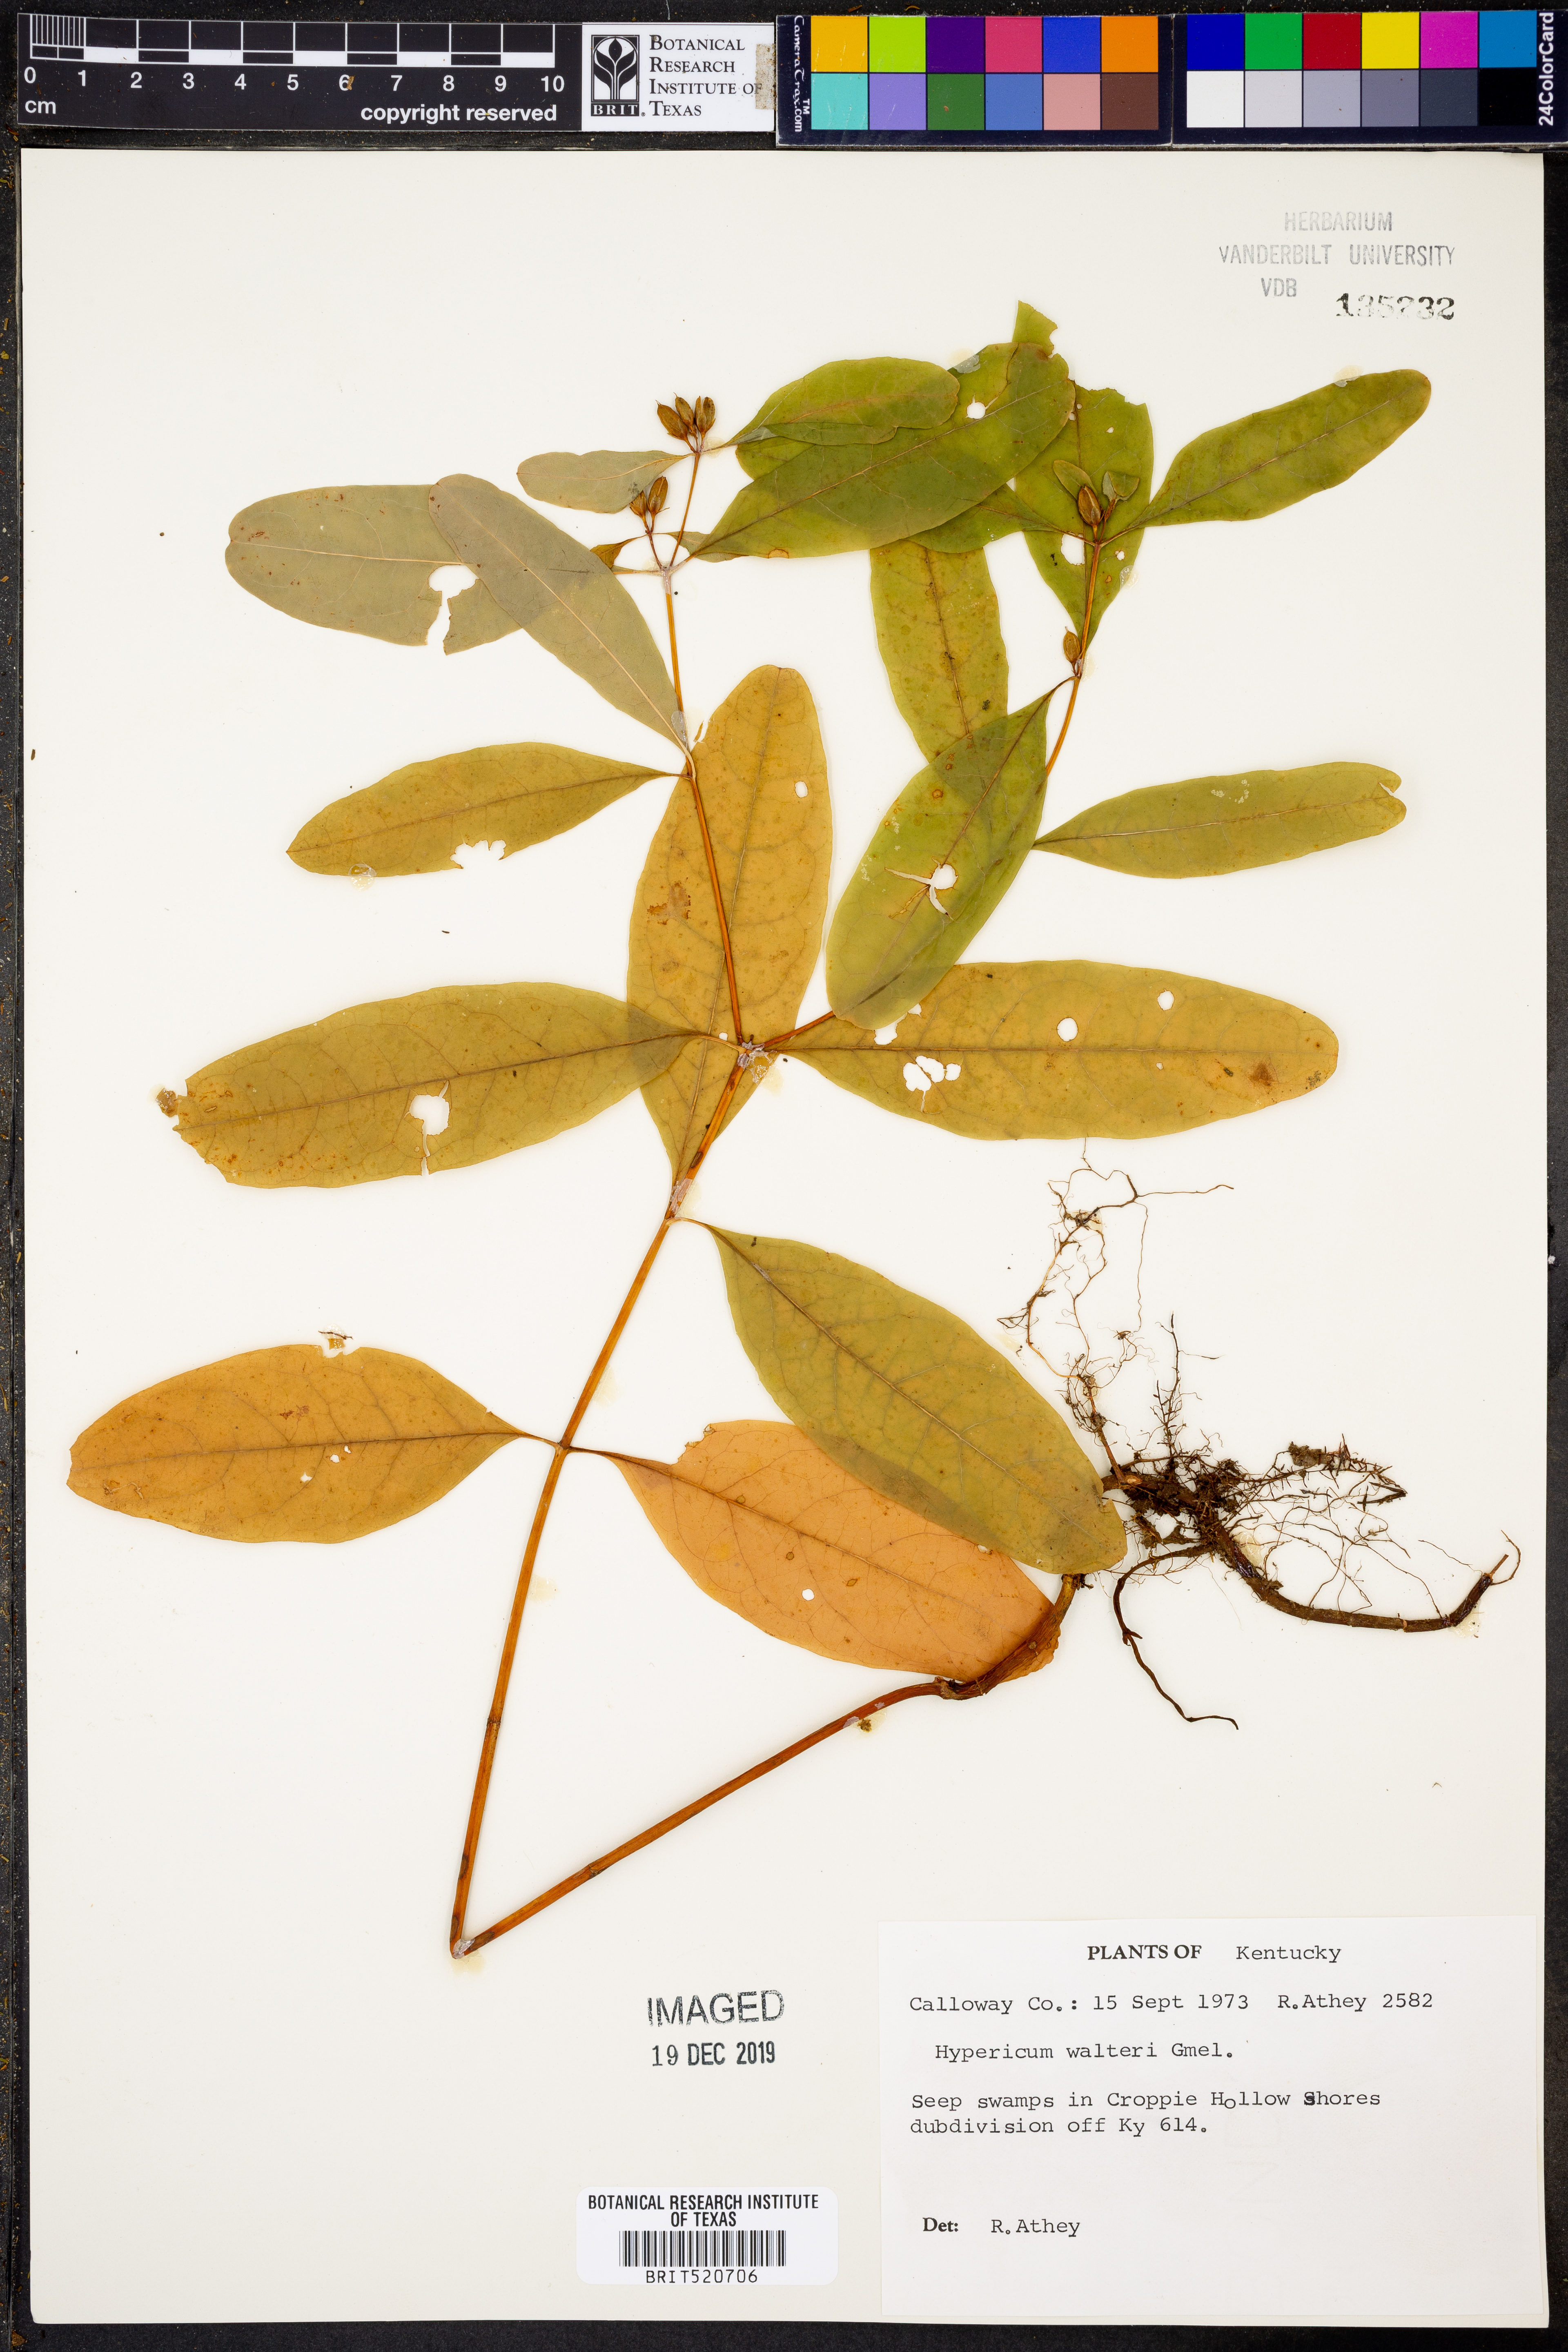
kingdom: Plantae
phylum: Tracheophyta
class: Magnoliopsida
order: Malpighiales
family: Hypericaceae
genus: Triadenum
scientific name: Triadenum walteri
